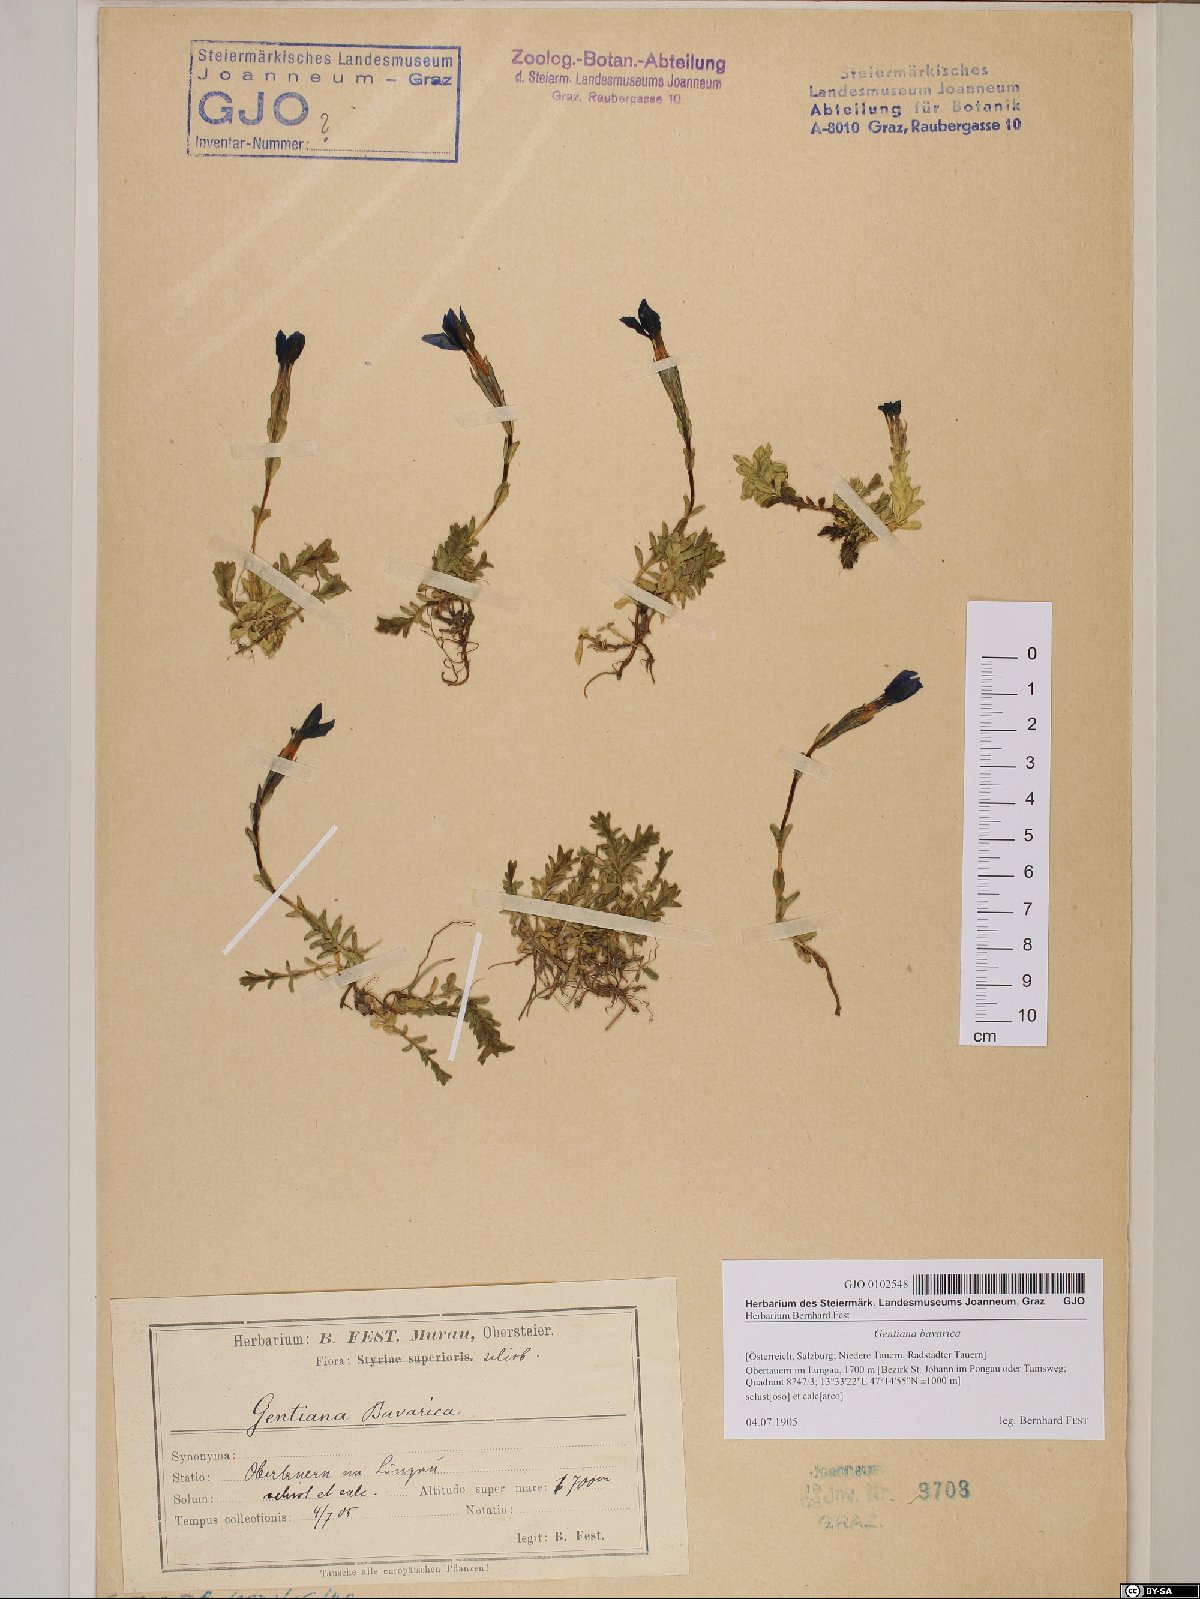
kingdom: Plantae
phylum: Tracheophyta
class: Magnoliopsida
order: Gentianales
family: Gentianaceae
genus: Gentiana
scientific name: Gentiana bavarica
